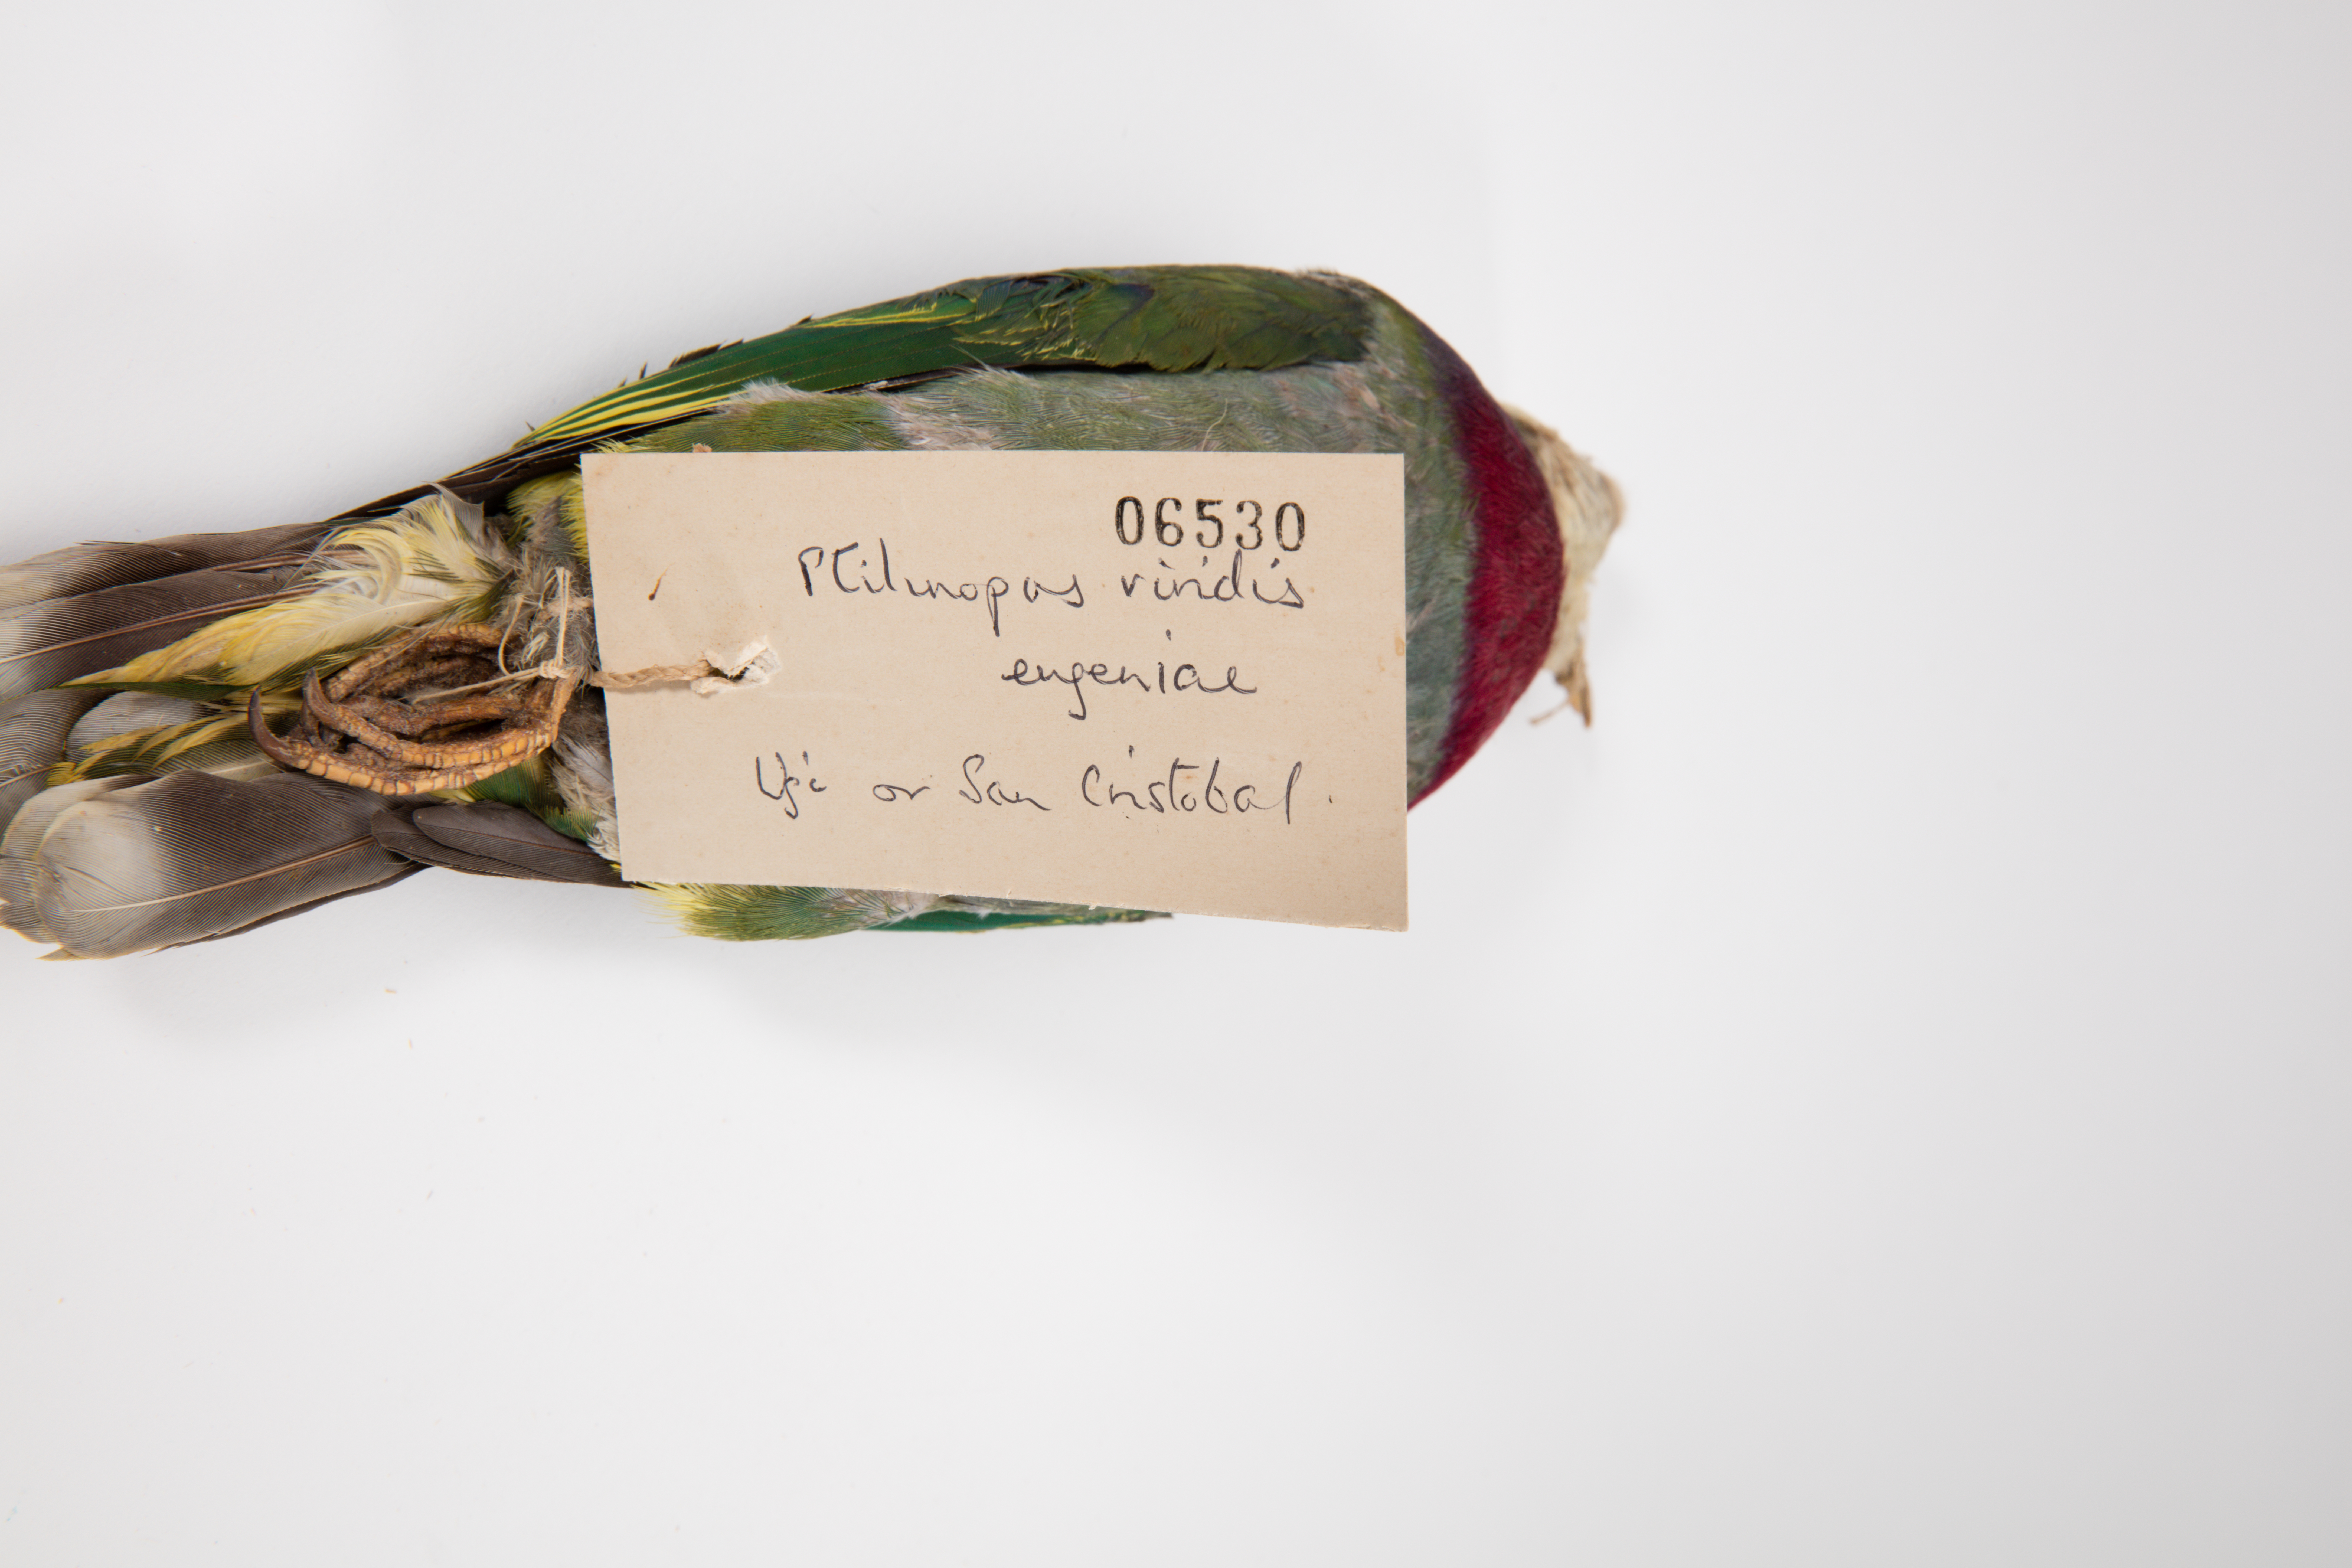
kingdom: Animalia
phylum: Chordata
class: Aves
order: Columbiformes
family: Columbidae
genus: Ptilinopus
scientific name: Ptilinopus viridis
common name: Claret-breasted fruit dove
